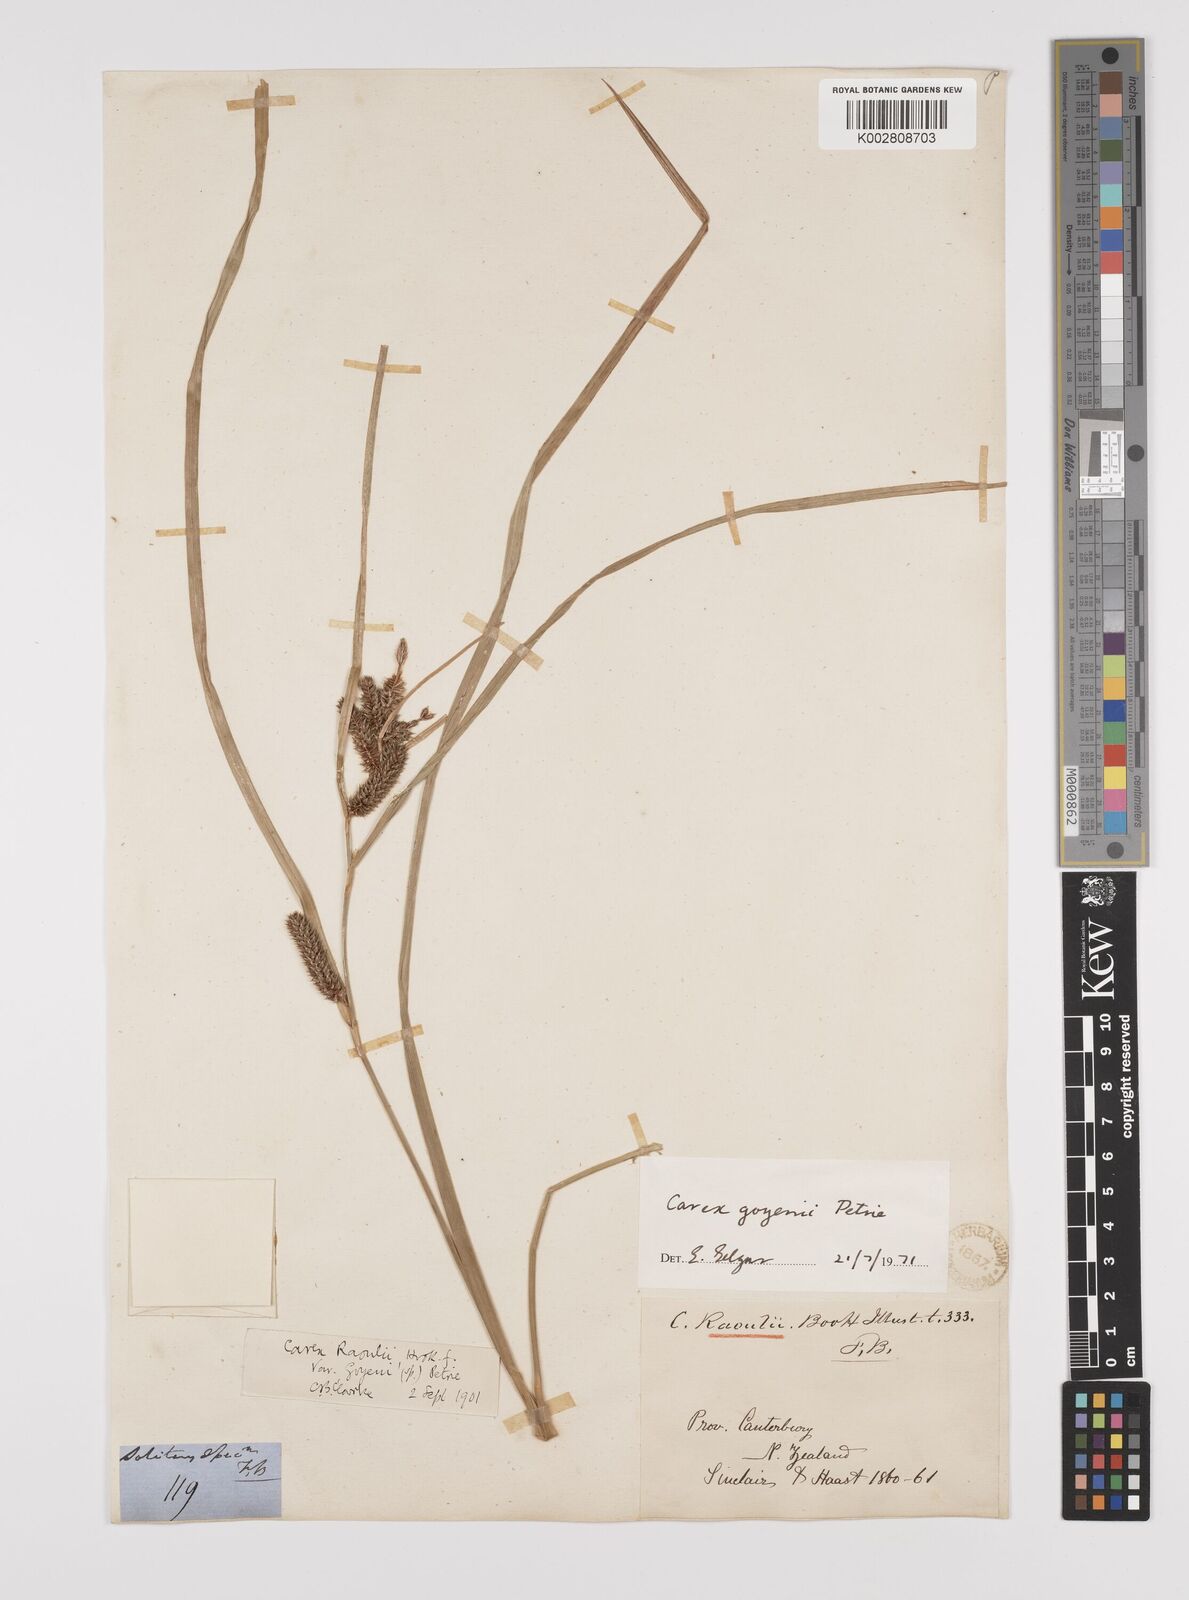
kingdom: Plantae
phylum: Tracheophyta
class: Liliopsida
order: Poales
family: Cyperaceae
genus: Carex
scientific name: Carex raoulii
